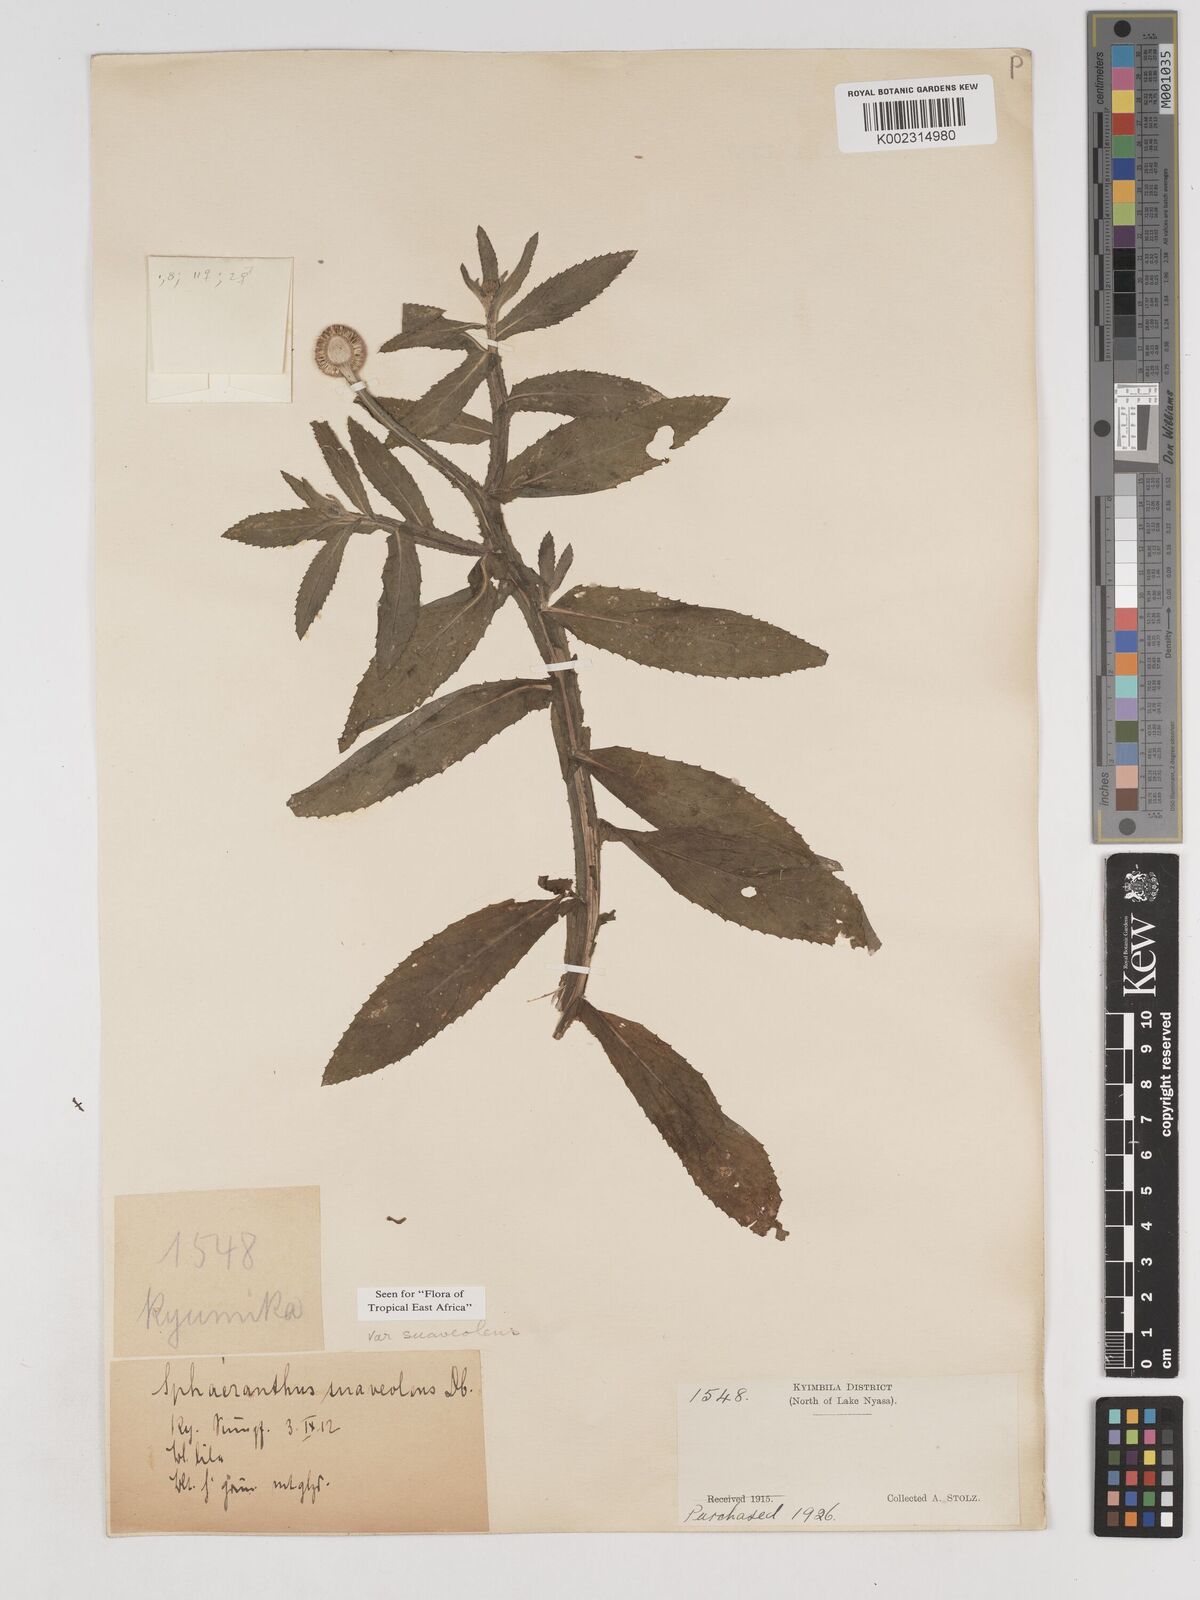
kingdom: Plantae
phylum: Tracheophyta
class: Magnoliopsida
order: Asterales
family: Asteraceae
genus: Sphaeranthus
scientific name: Sphaeranthus suaveolens
